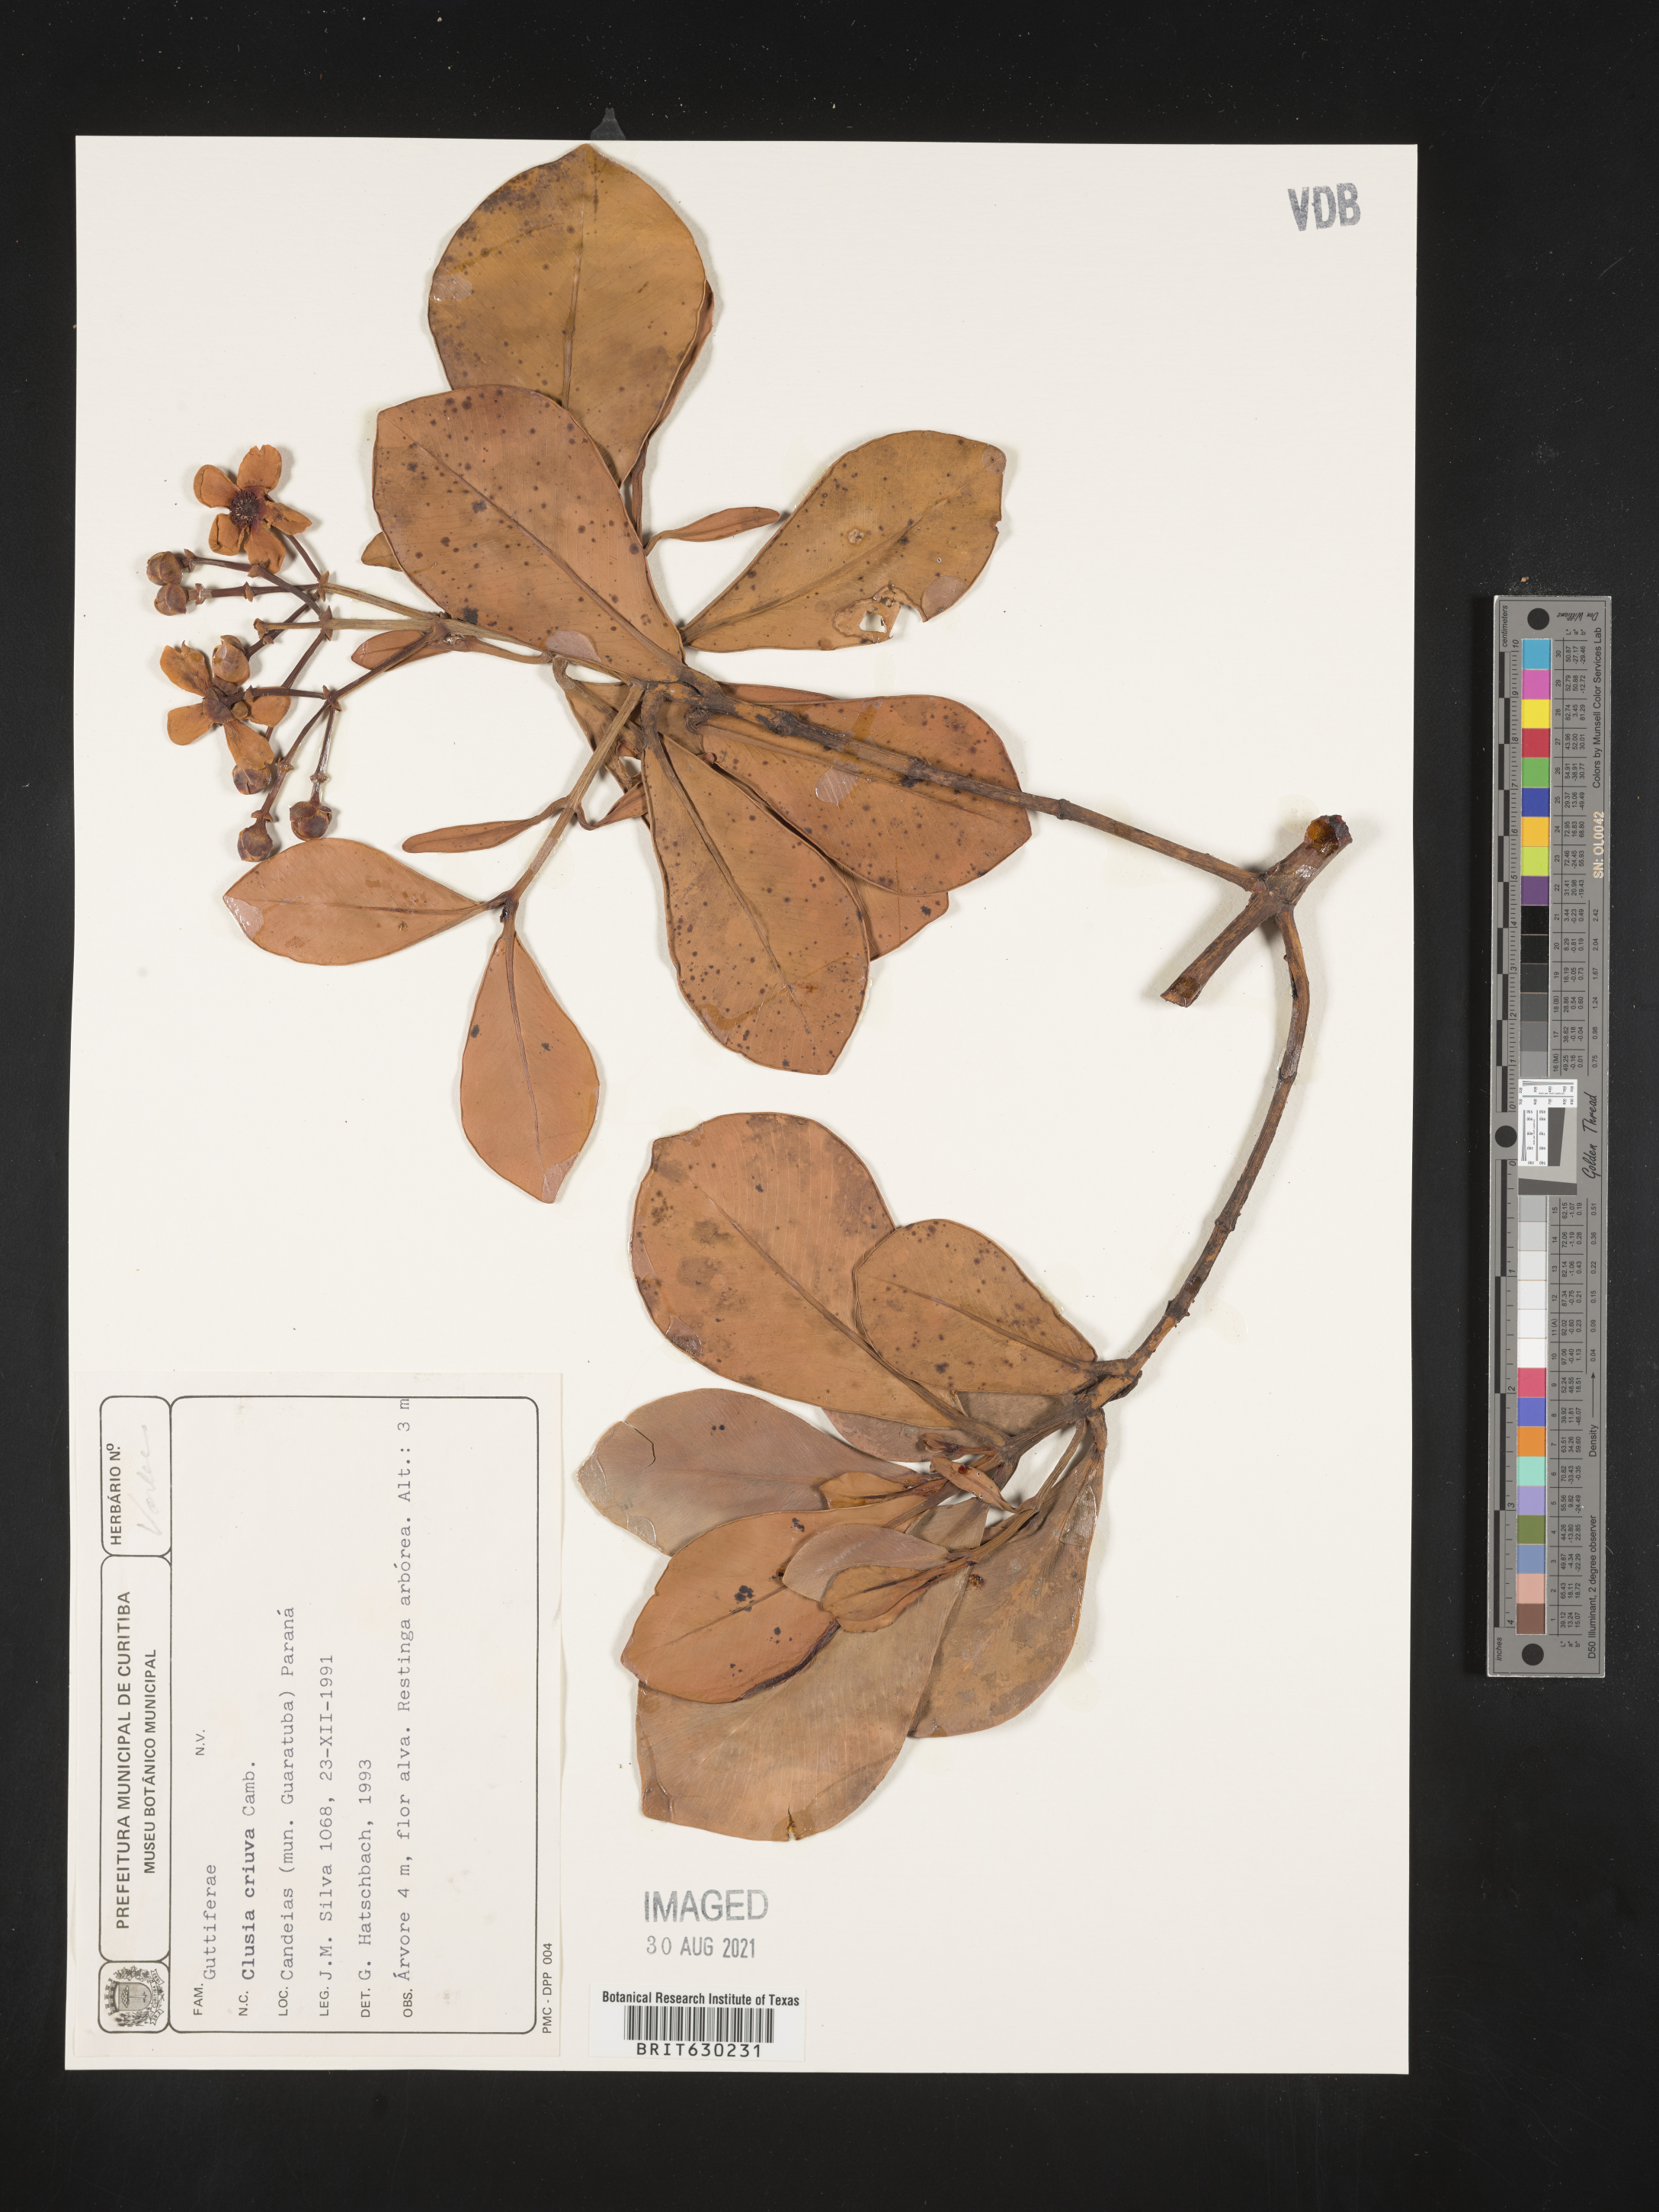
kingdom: Plantae
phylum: Tracheophyta
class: Magnoliopsida
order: Malpighiales
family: Clusiaceae
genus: Clusia
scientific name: Clusia criuva
